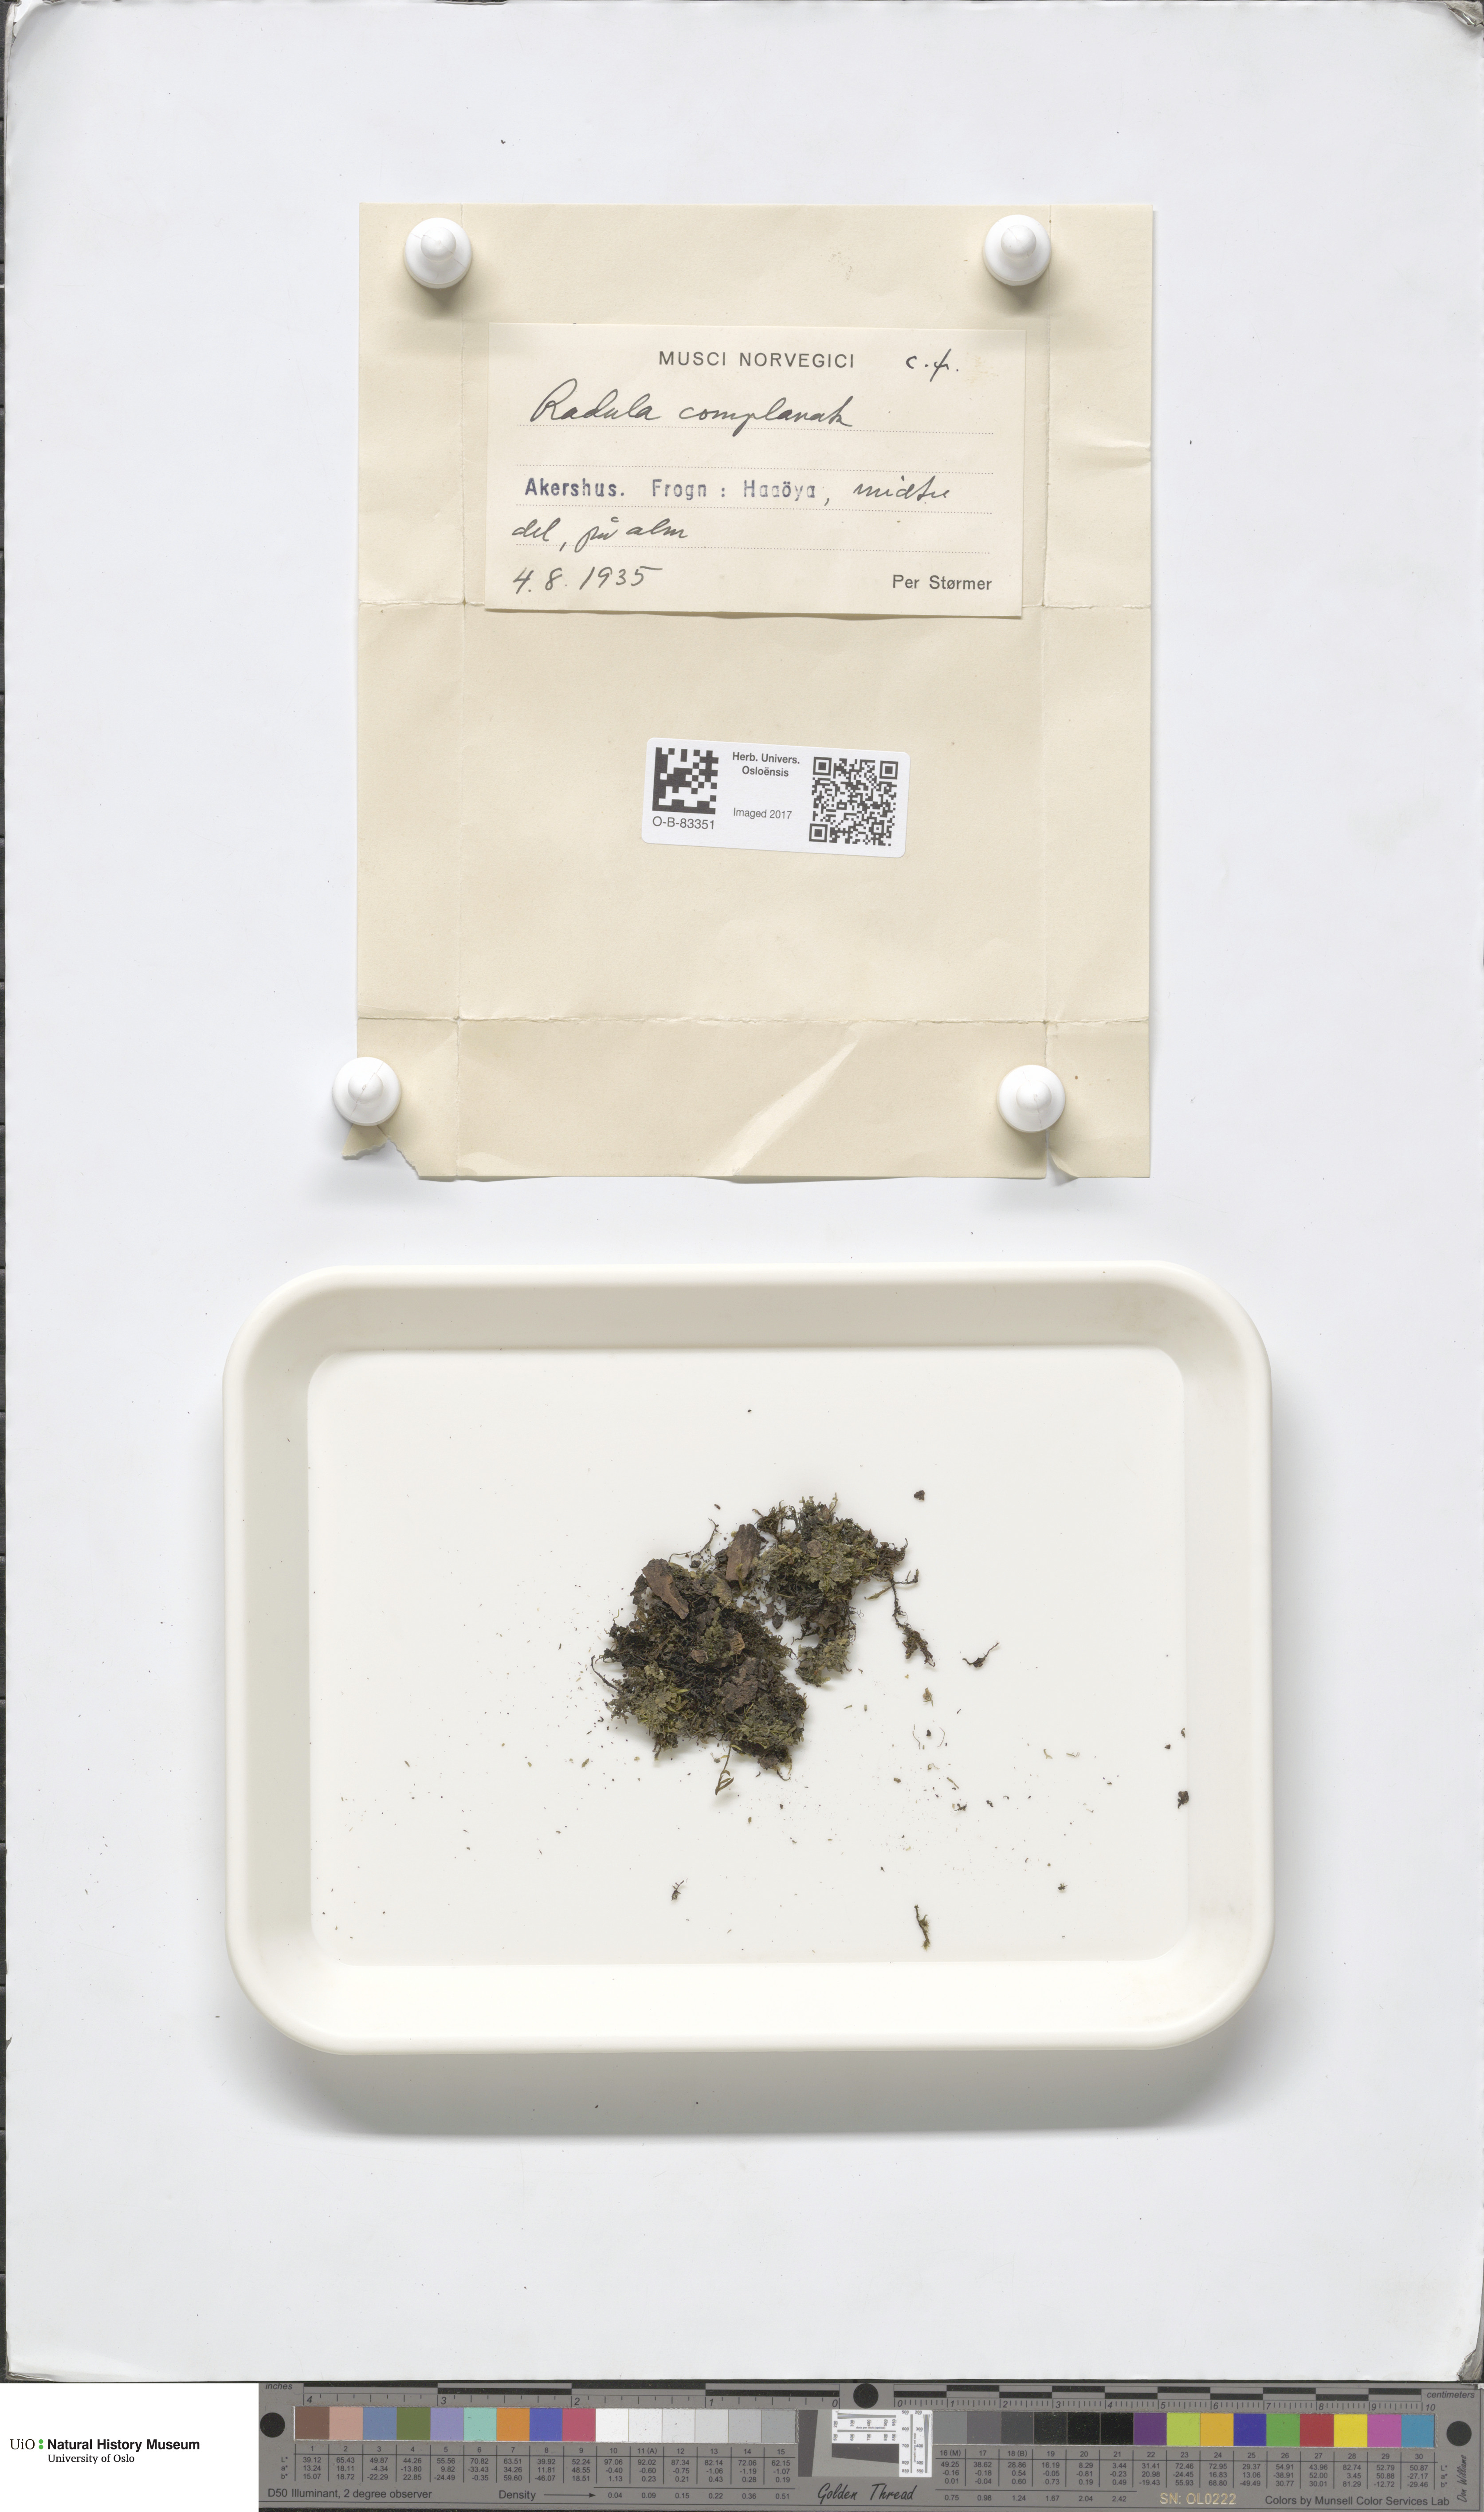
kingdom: Plantae
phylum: Marchantiophyta
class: Jungermanniopsida
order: Porellales
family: Radulaceae
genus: Radula
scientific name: Radula complanata
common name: Flat-leaved scalewort
